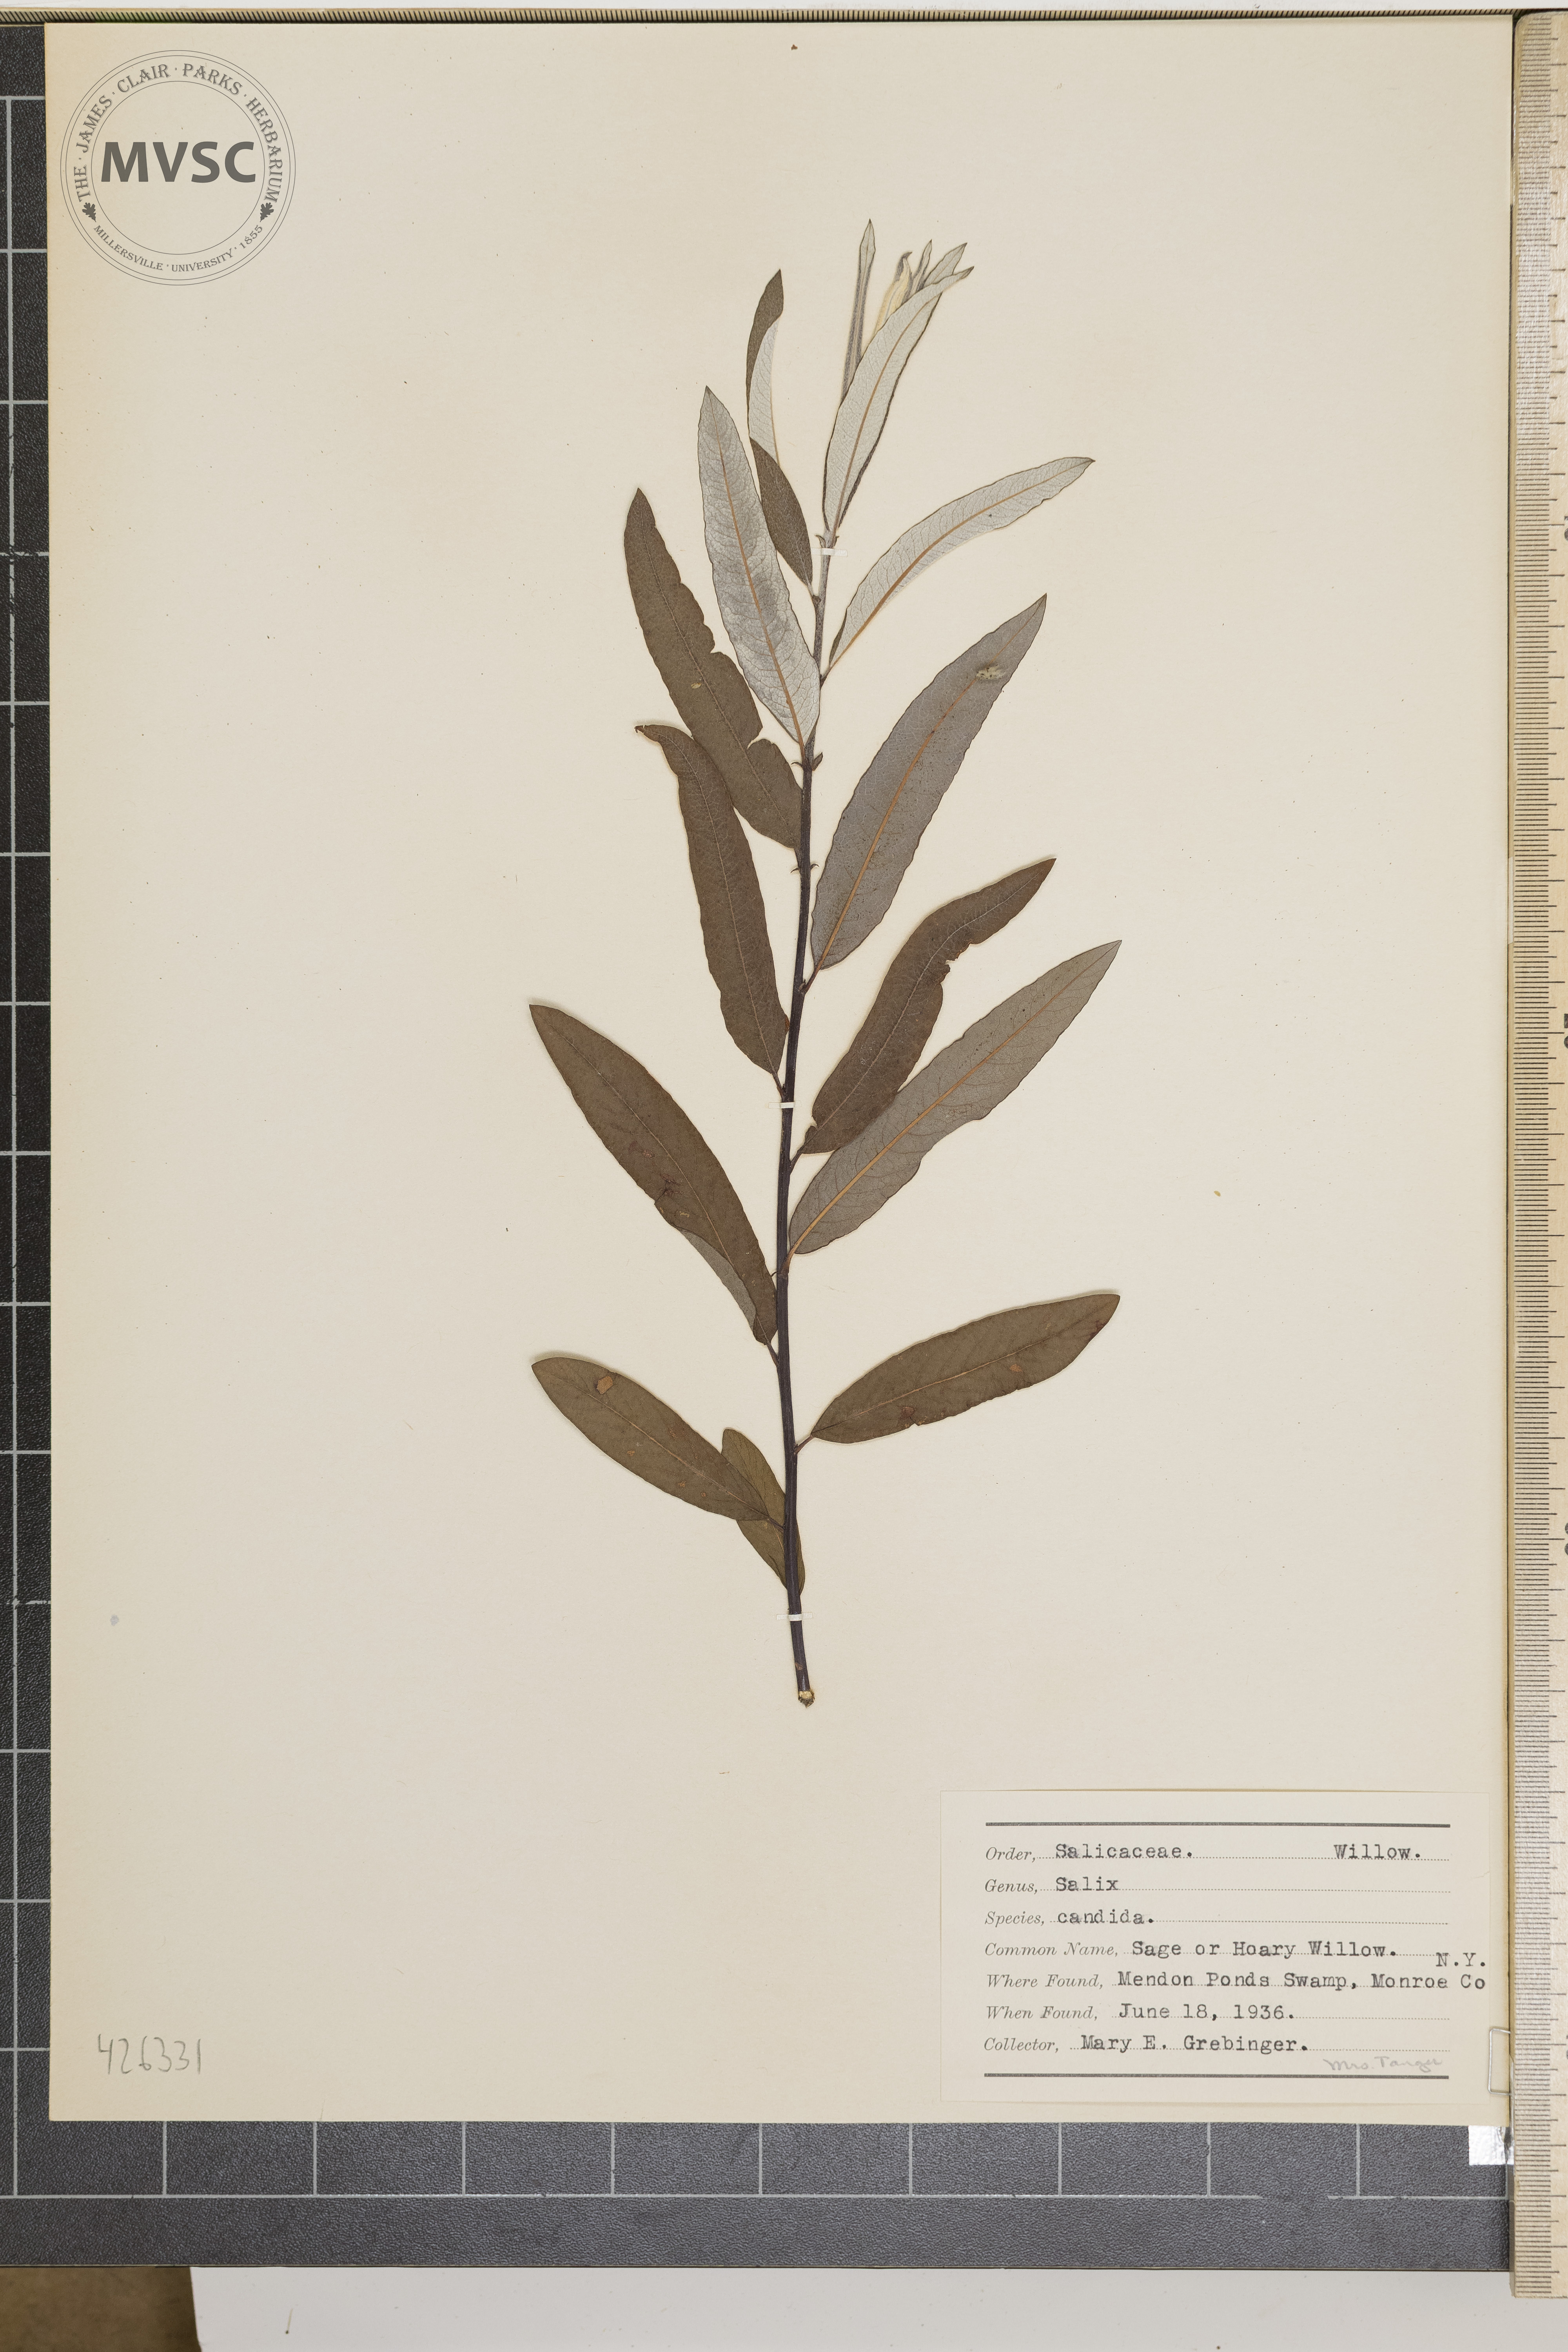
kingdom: Plantae
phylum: Tracheophyta
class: Magnoliopsida
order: Malpighiales
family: Salicaceae
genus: Salix
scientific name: Salix candida
